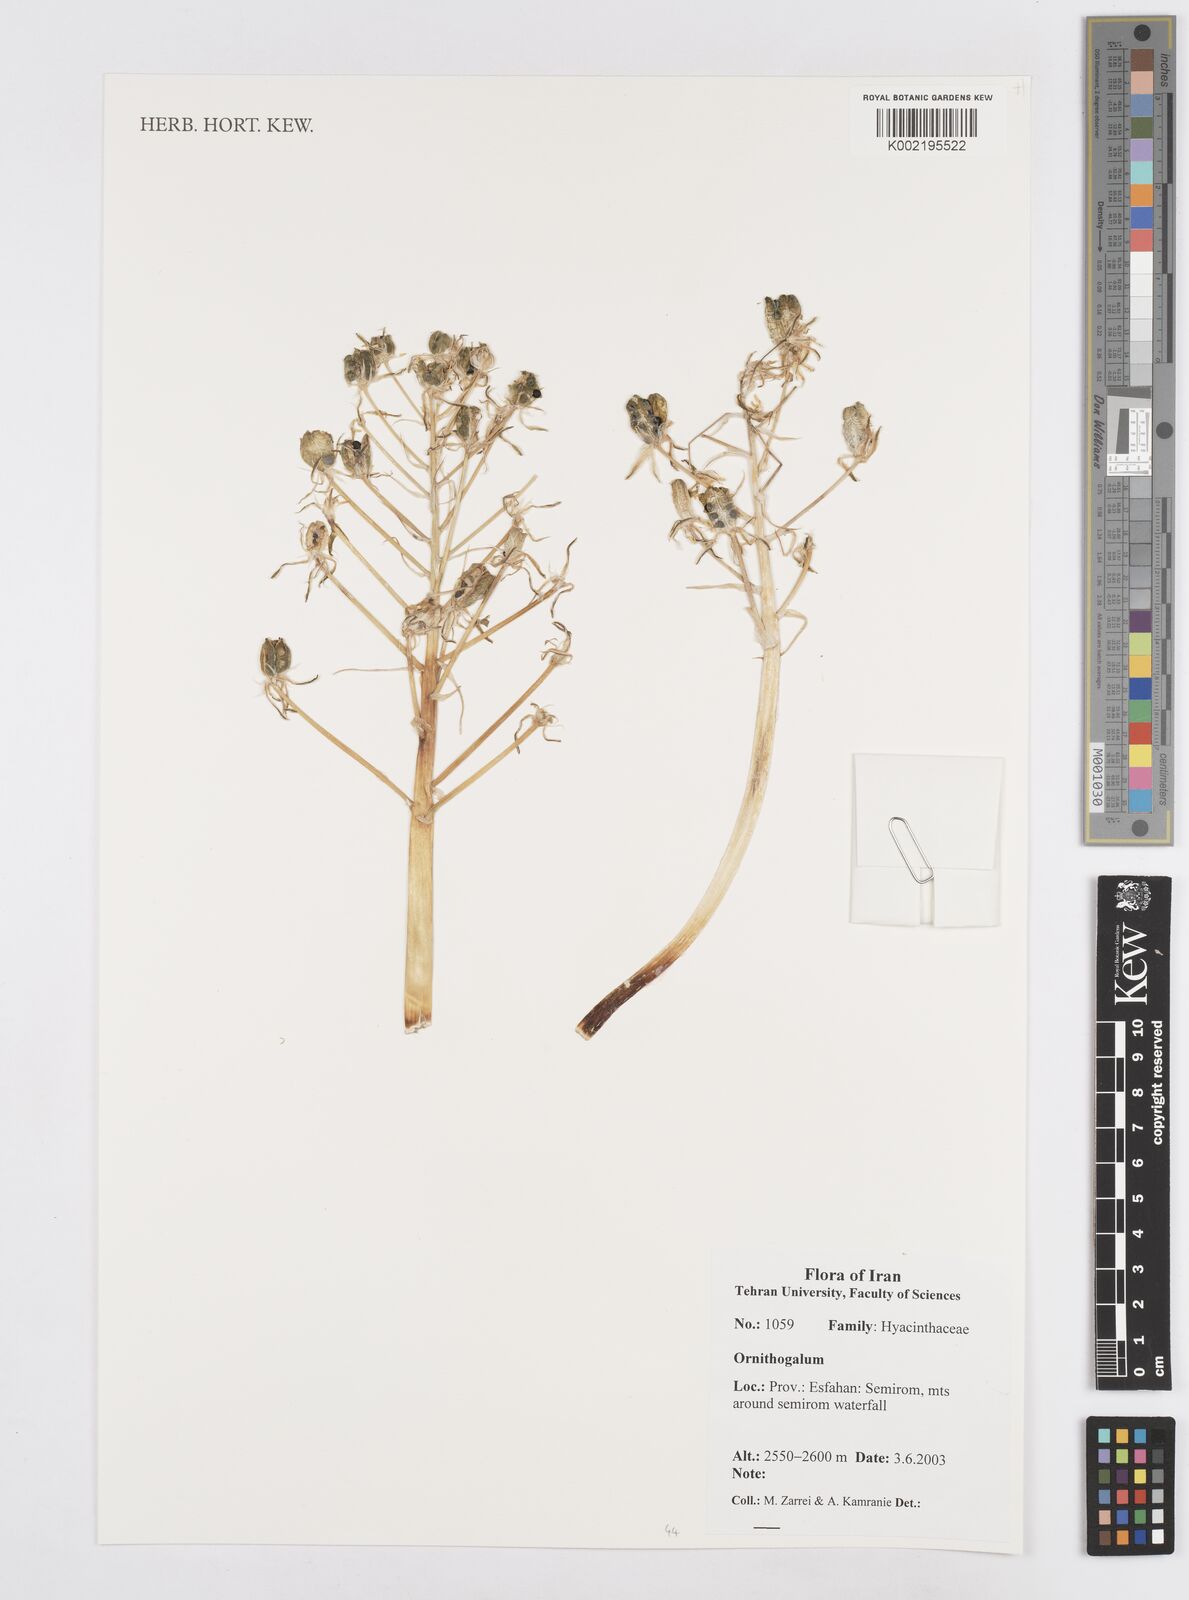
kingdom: Plantae
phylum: Tracheophyta
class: Liliopsida
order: Asparagales
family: Asparagaceae
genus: Ornithogalum
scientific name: Ornithogalum
